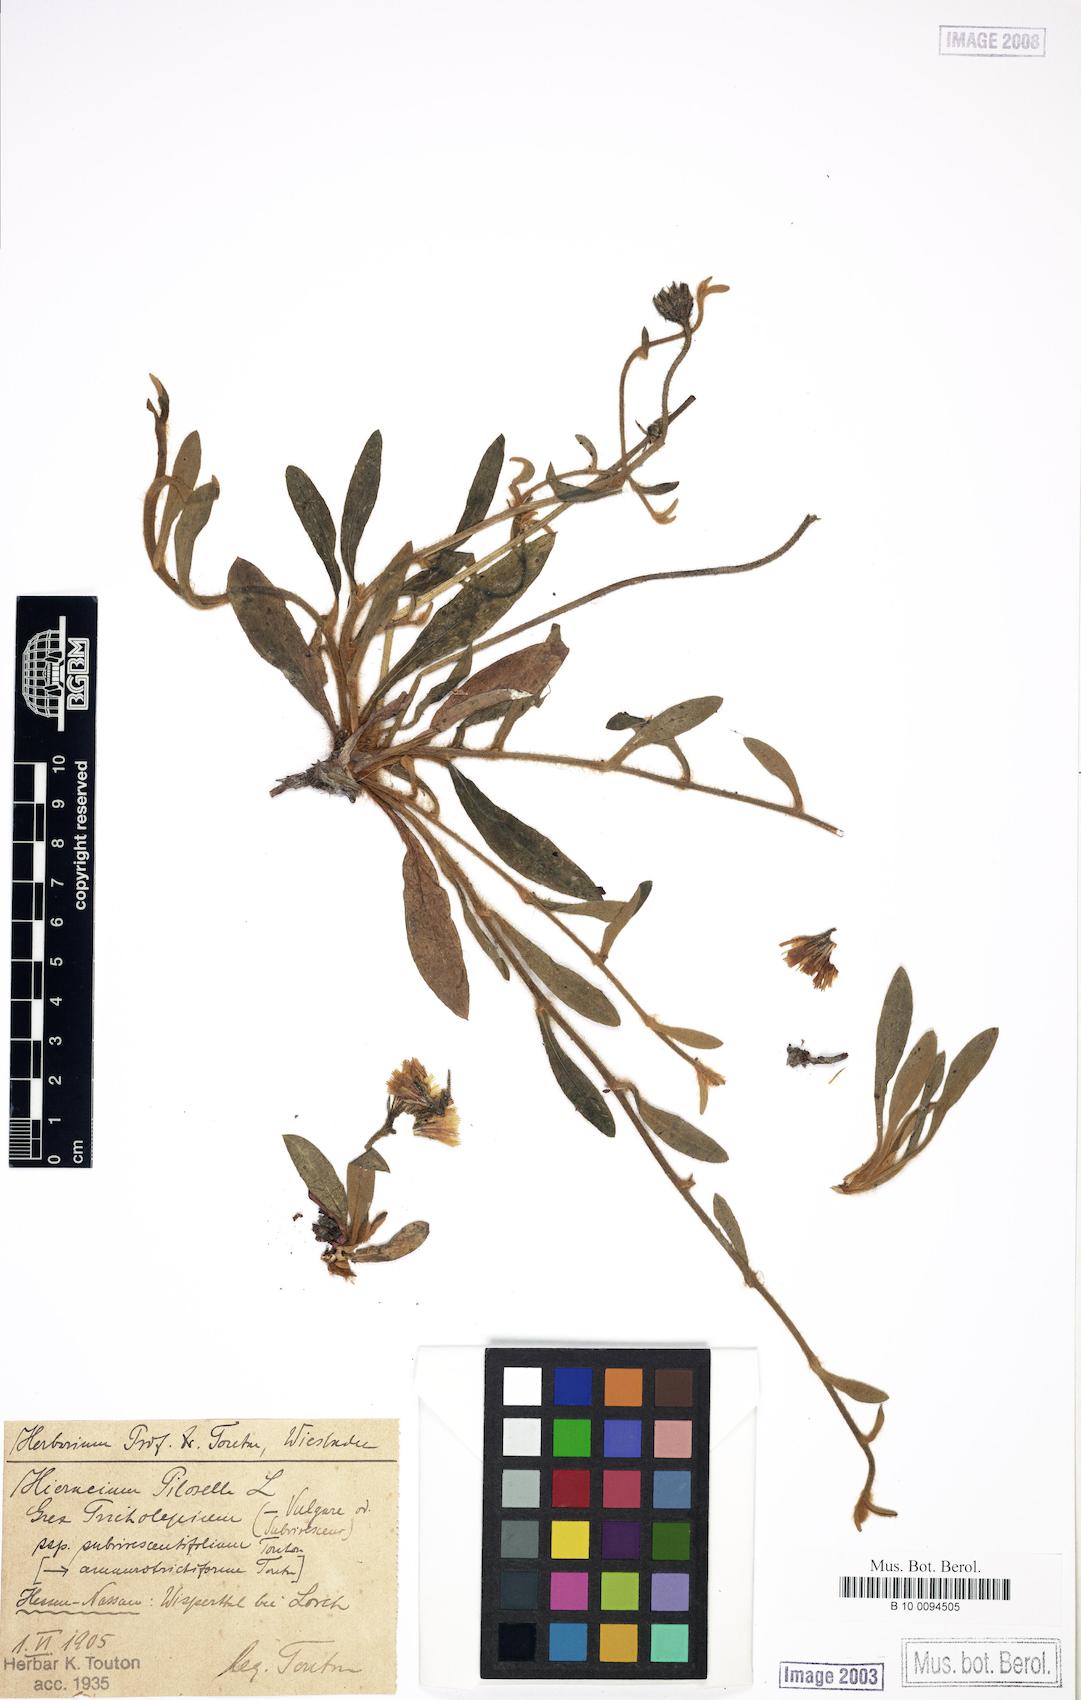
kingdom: Plantae
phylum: Tracheophyta
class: Magnoliopsida
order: Asterales
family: Asteraceae
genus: Pilosella
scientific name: Pilosella officinarum
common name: Mouse-ear hawkweed
